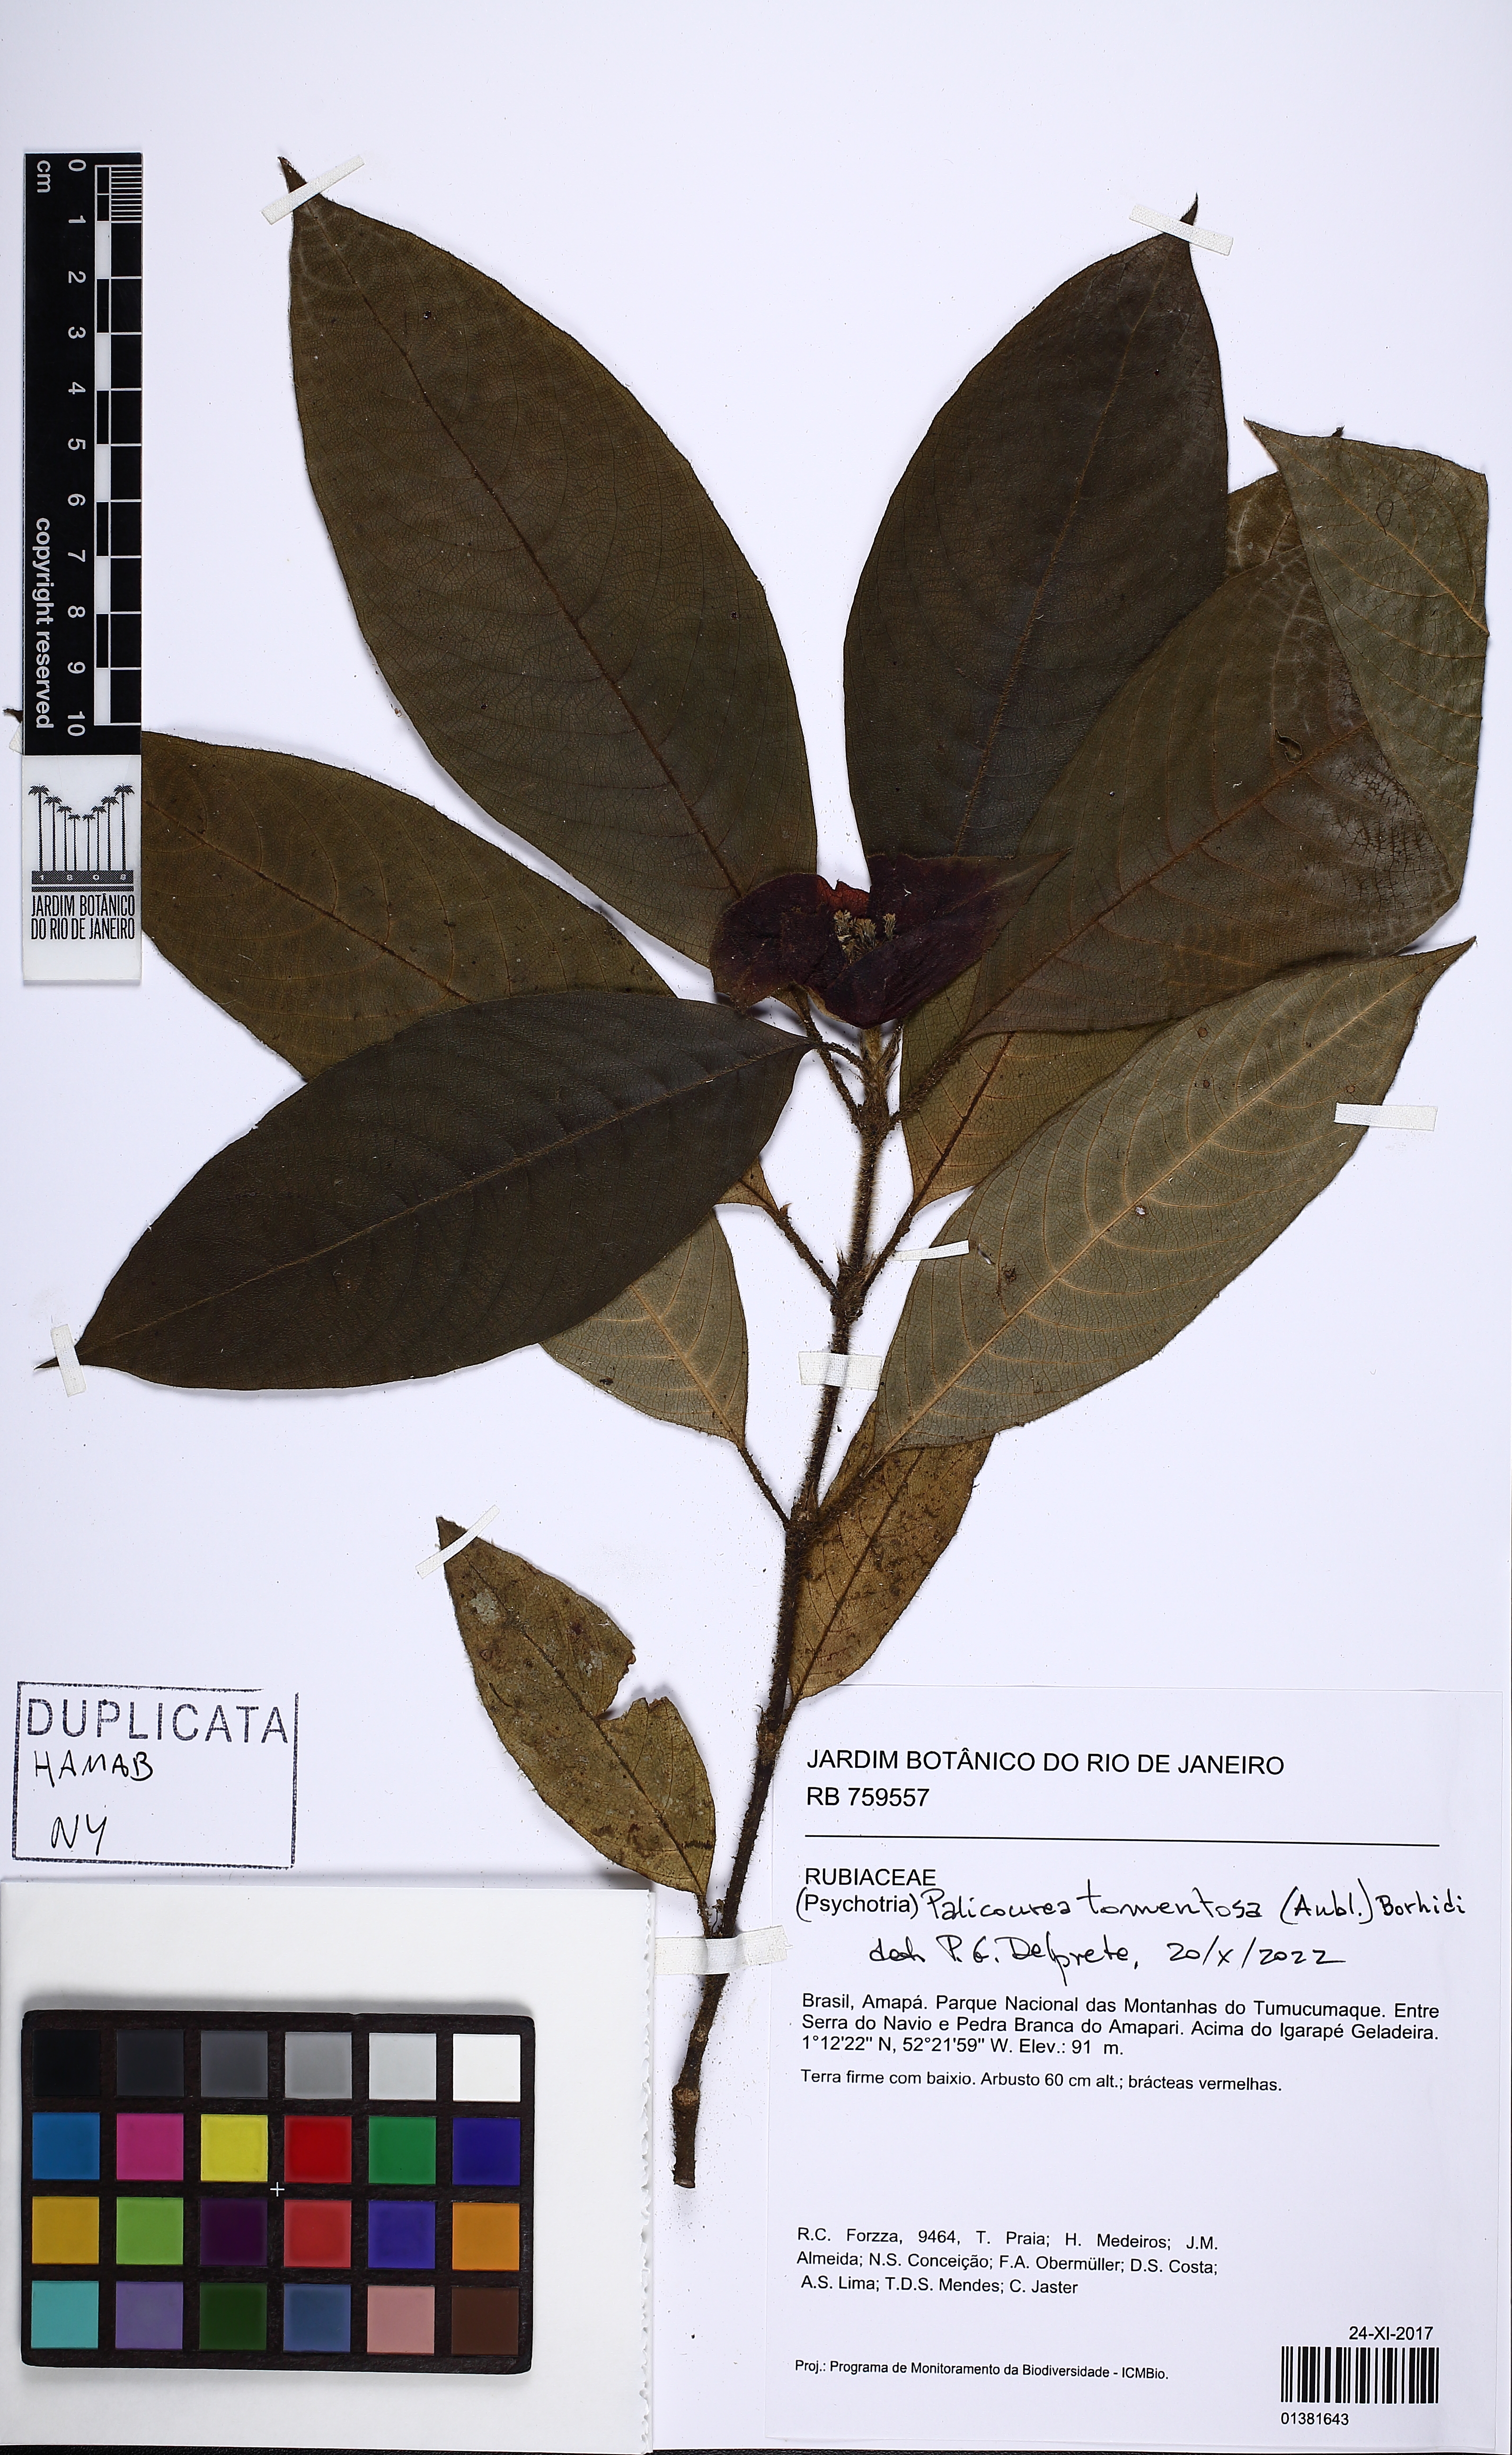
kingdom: Plantae
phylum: Tracheophyta
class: Magnoliopsida
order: Gentianales
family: Rubiaceae
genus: Palicourea
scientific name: Palicourea tomentosa
